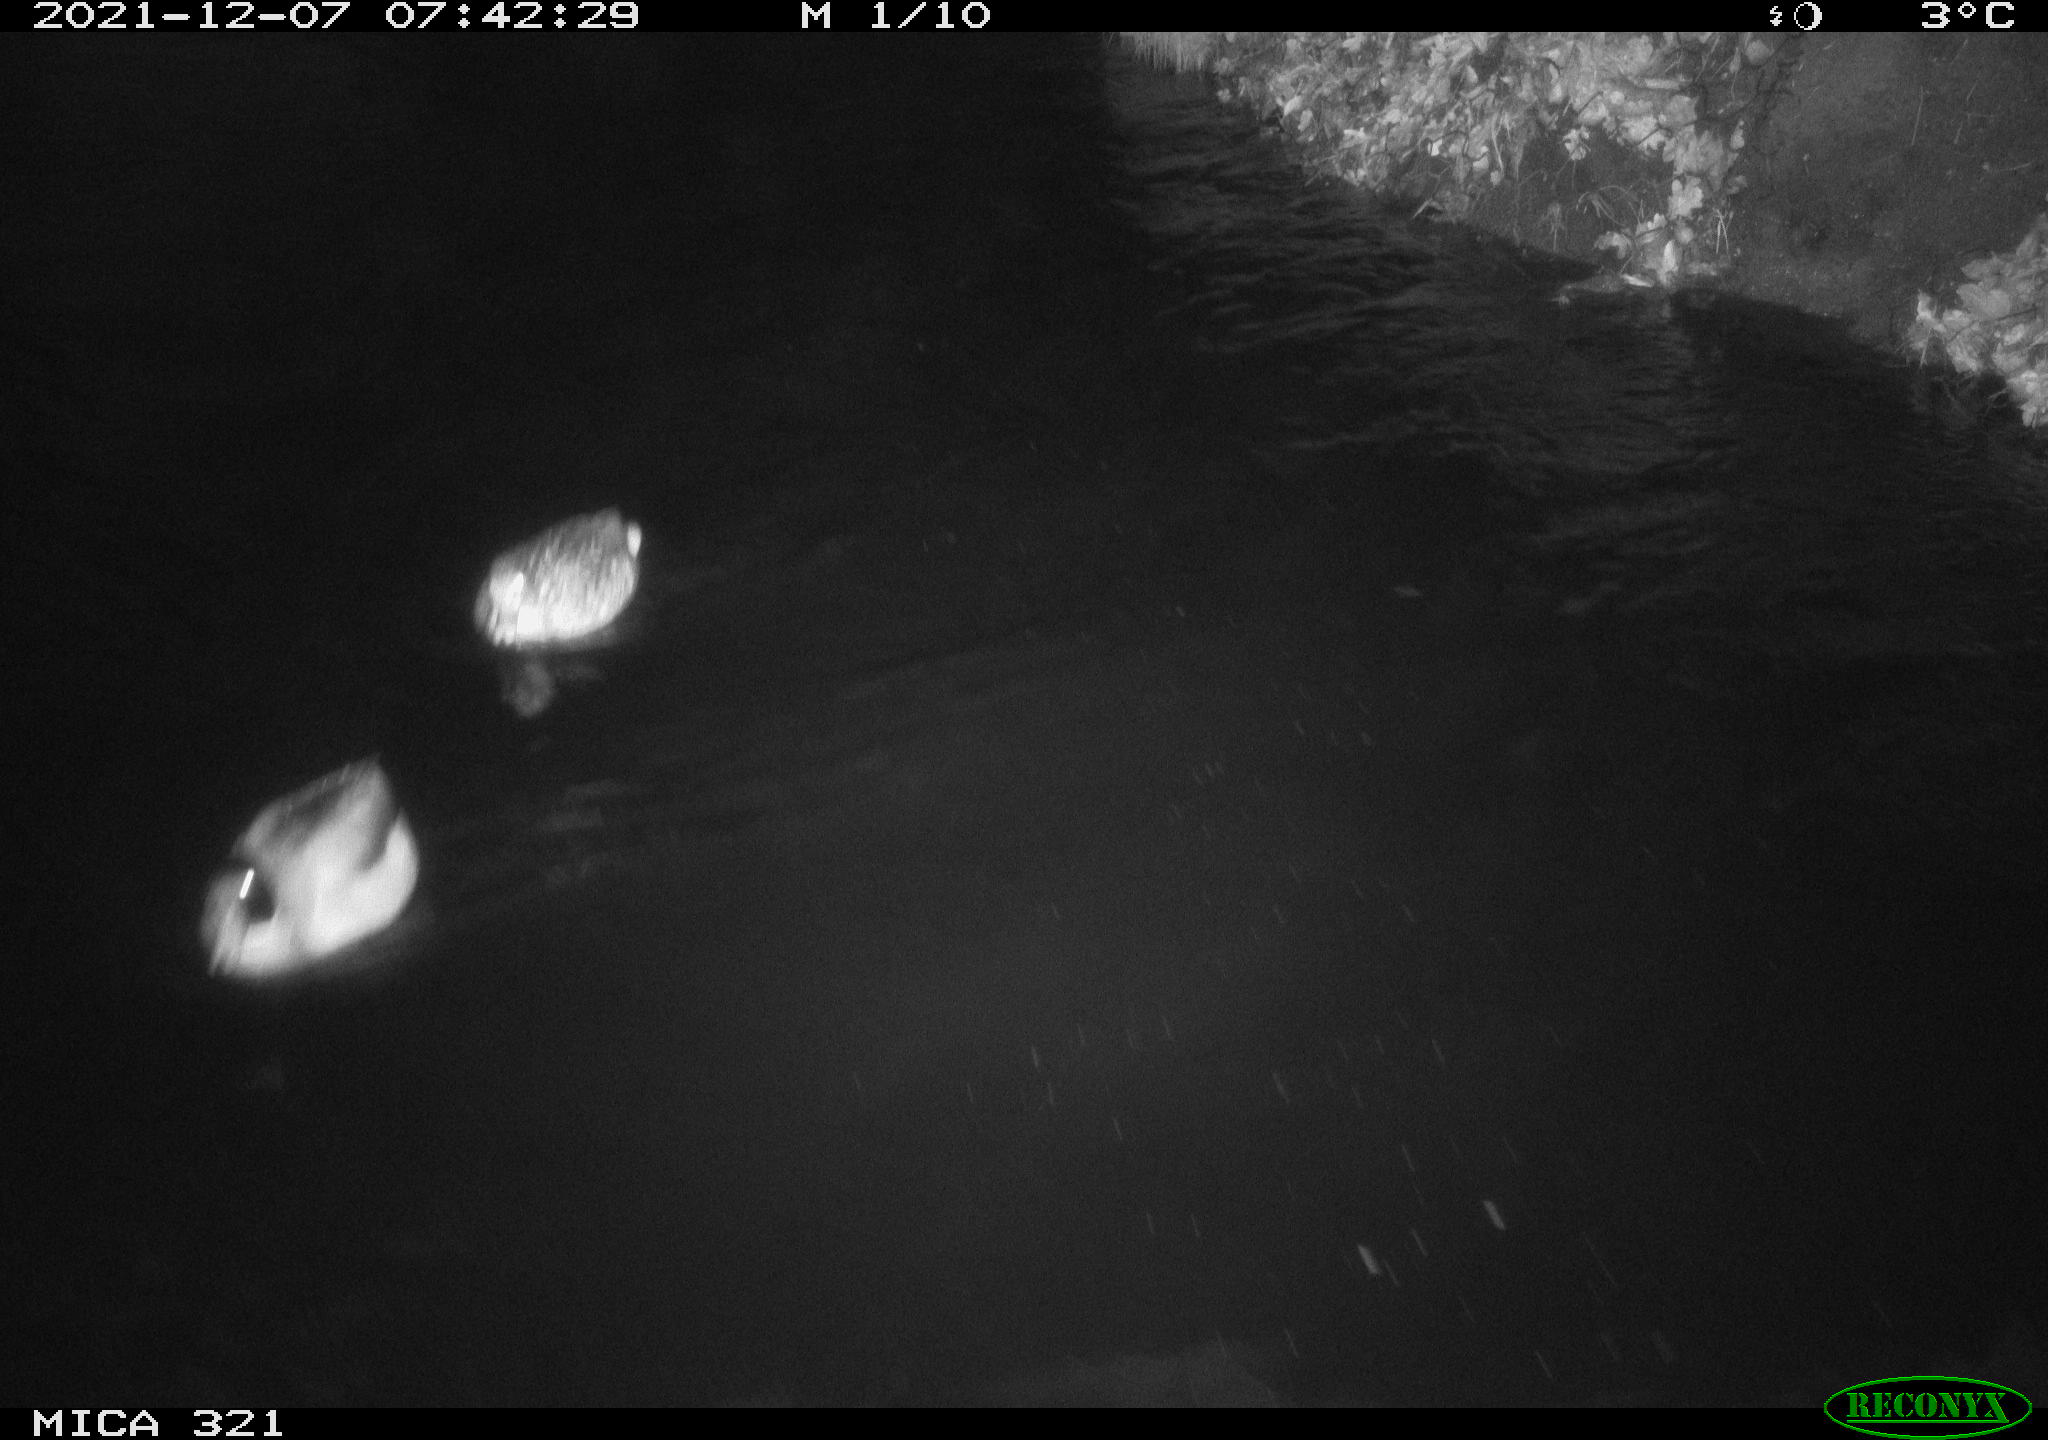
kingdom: Animalia
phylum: Chordata
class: Aves
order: Anseriformes
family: Anatidae
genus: Anas
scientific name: Anas platyrhynchos
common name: Mallard
